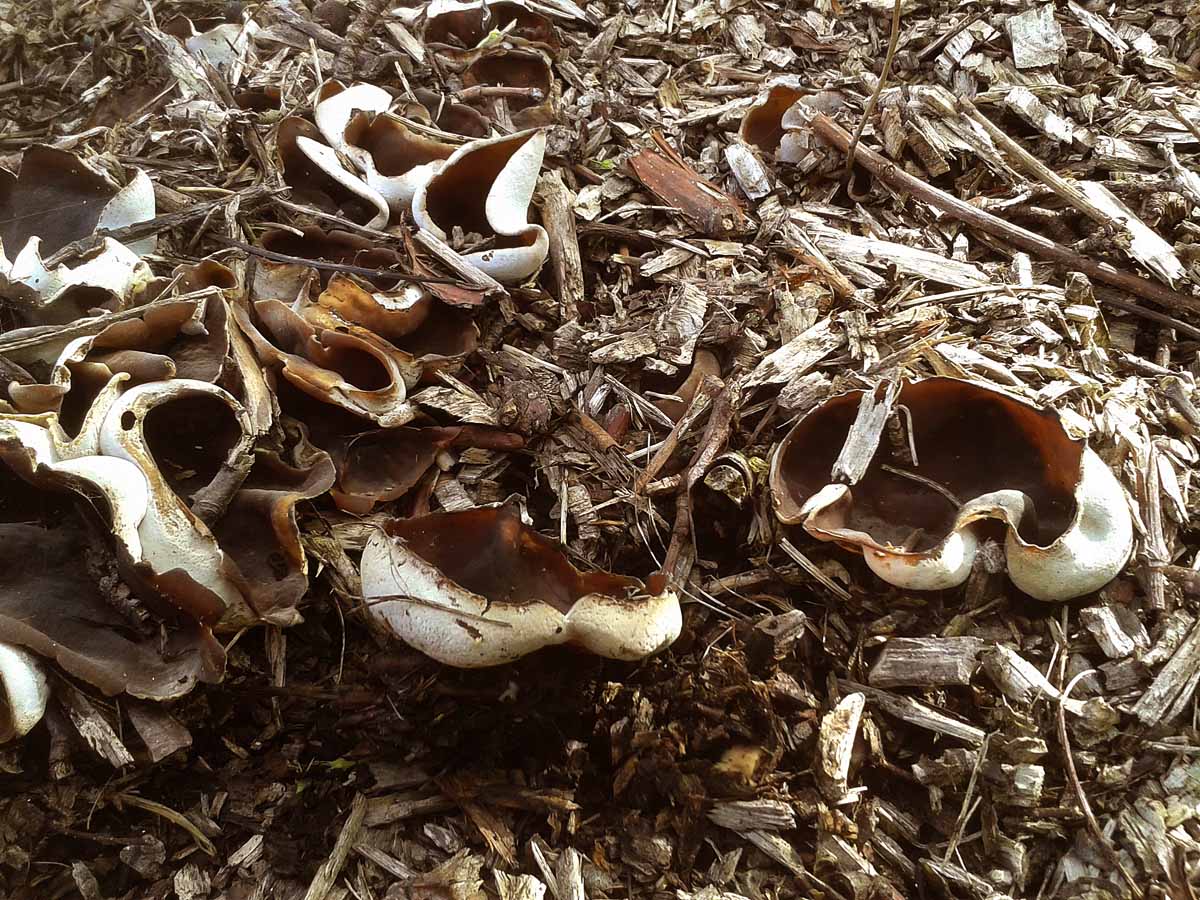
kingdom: Fungi
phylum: Ascomycota
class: Pezizomycetes
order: Pezizales
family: Pezizaceae
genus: Peziza
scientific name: Peziza varia
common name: Ved-bægersvamp
